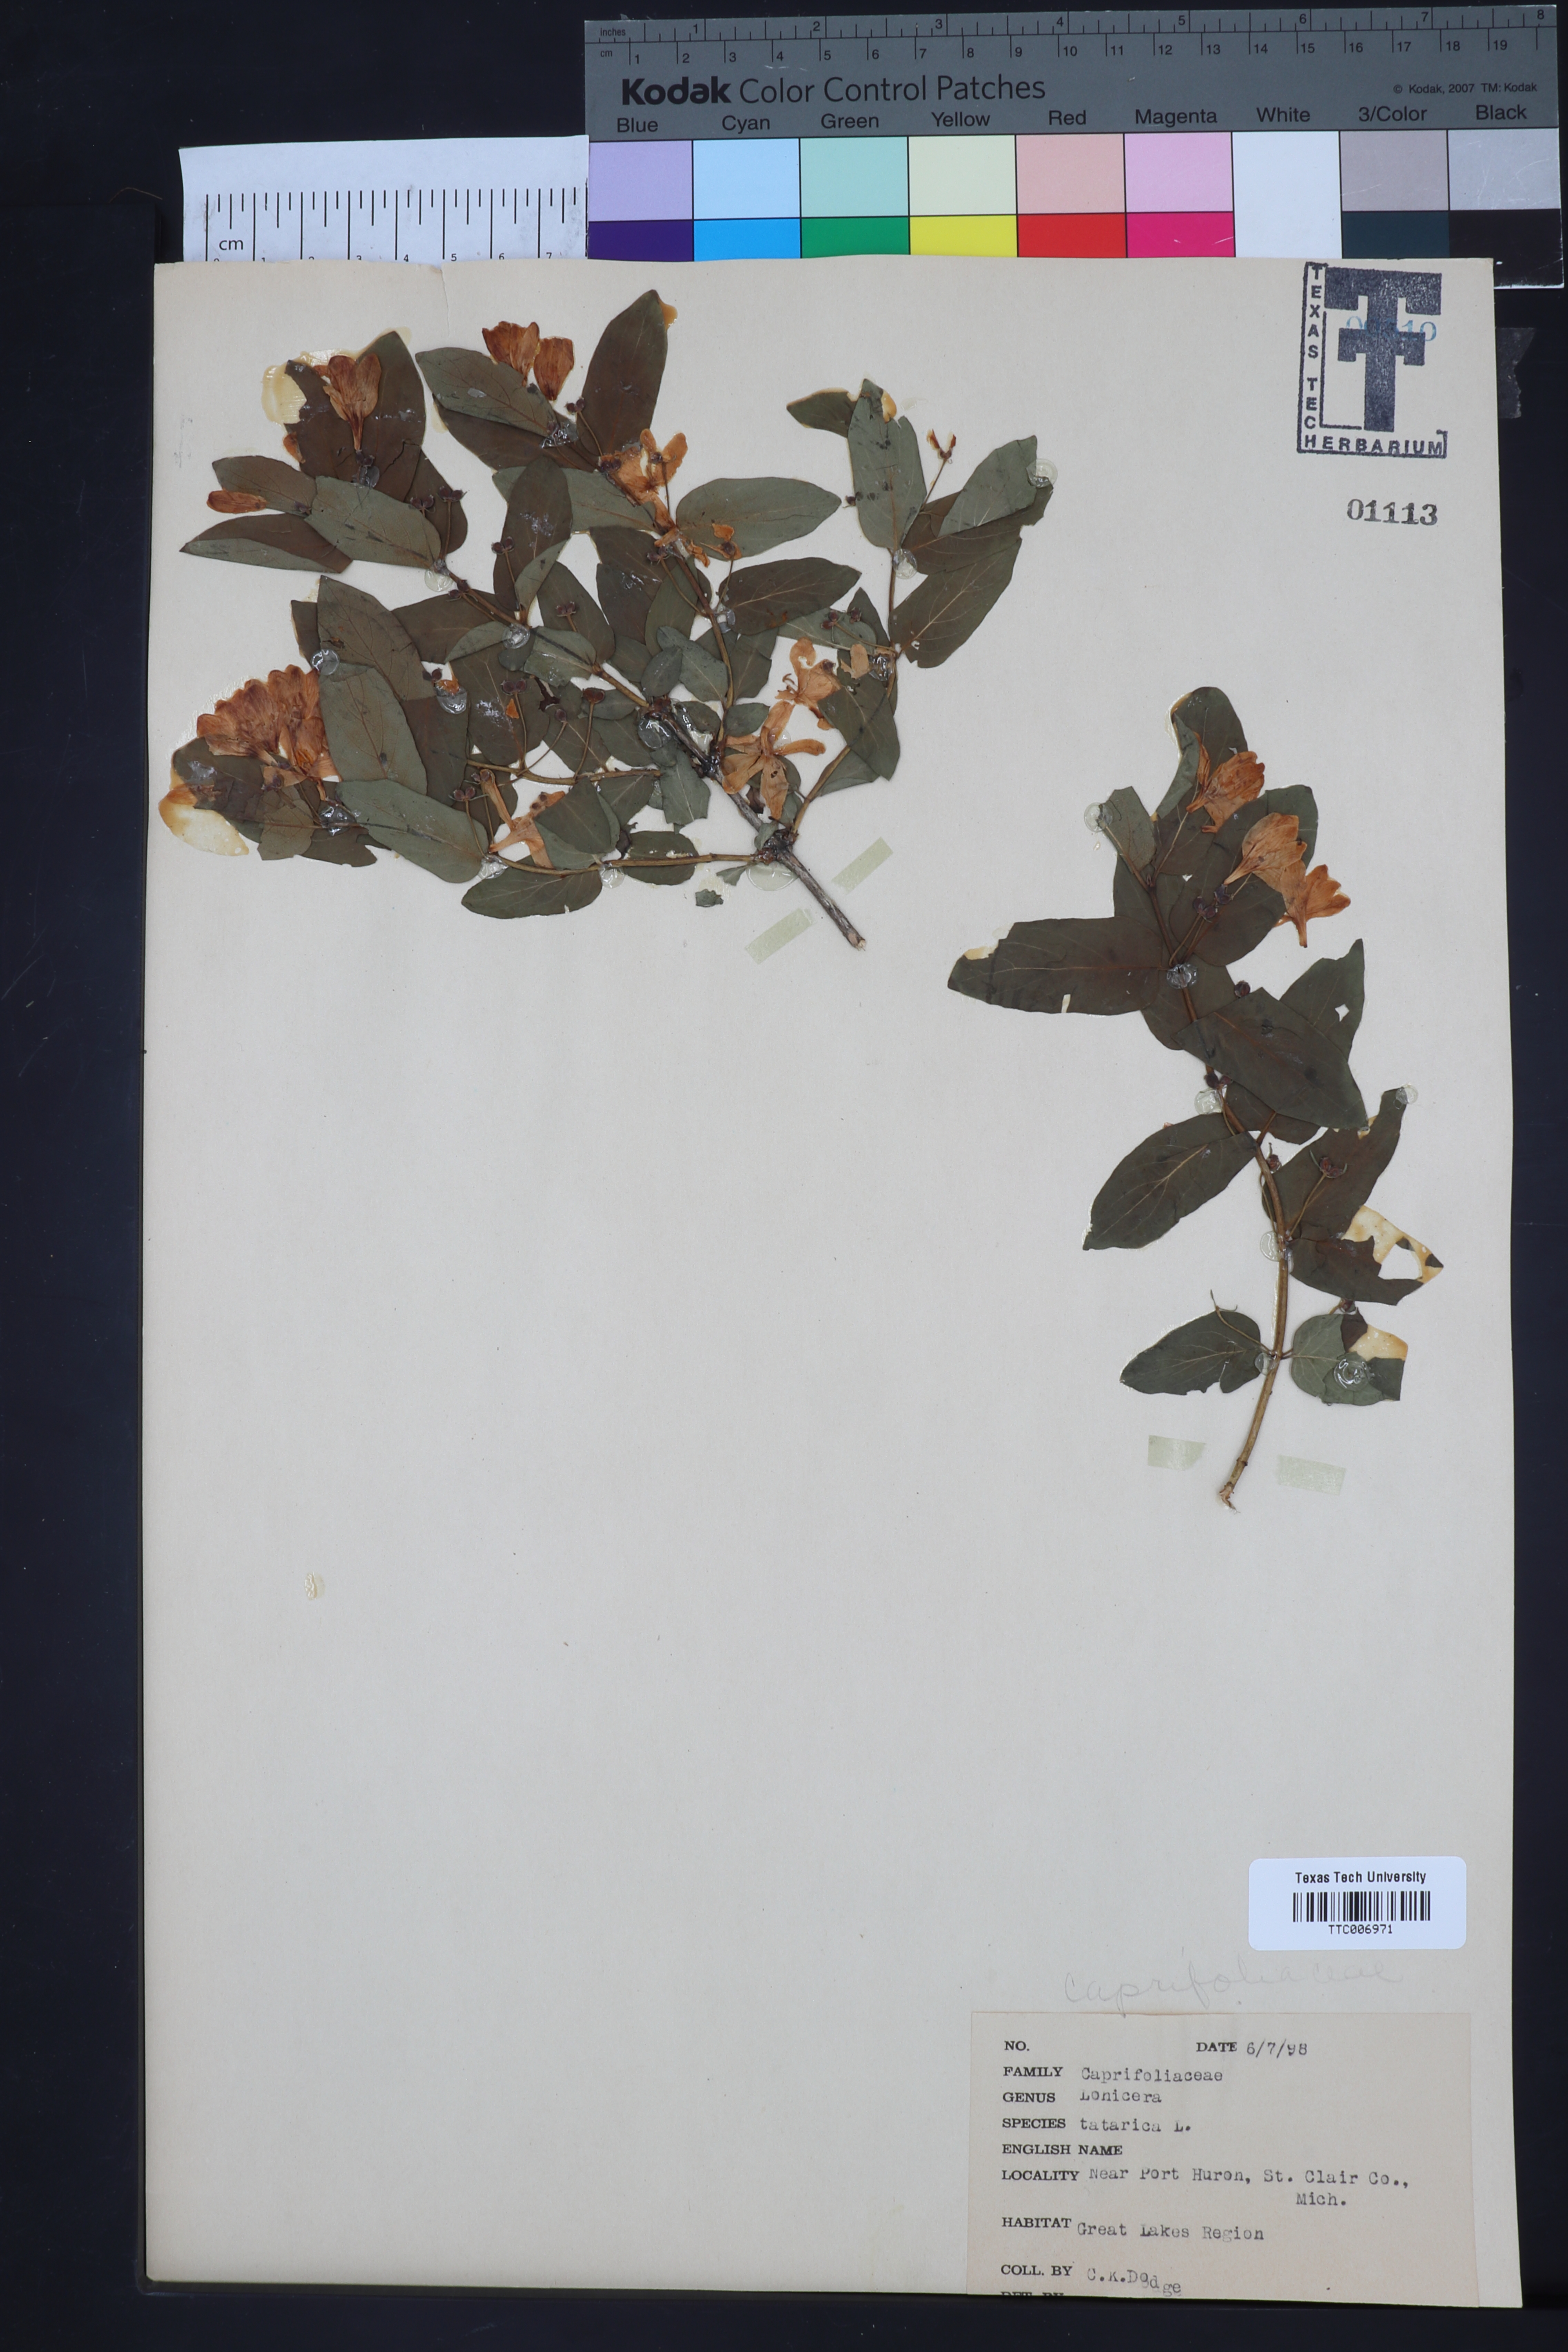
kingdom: Plantae
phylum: Tracheophyta
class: Magnoliopsida
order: Dipsacales
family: Caprifoliaceae
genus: Lonicera
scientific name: Lonicera tatarica
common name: Tatarian honeysuckle
